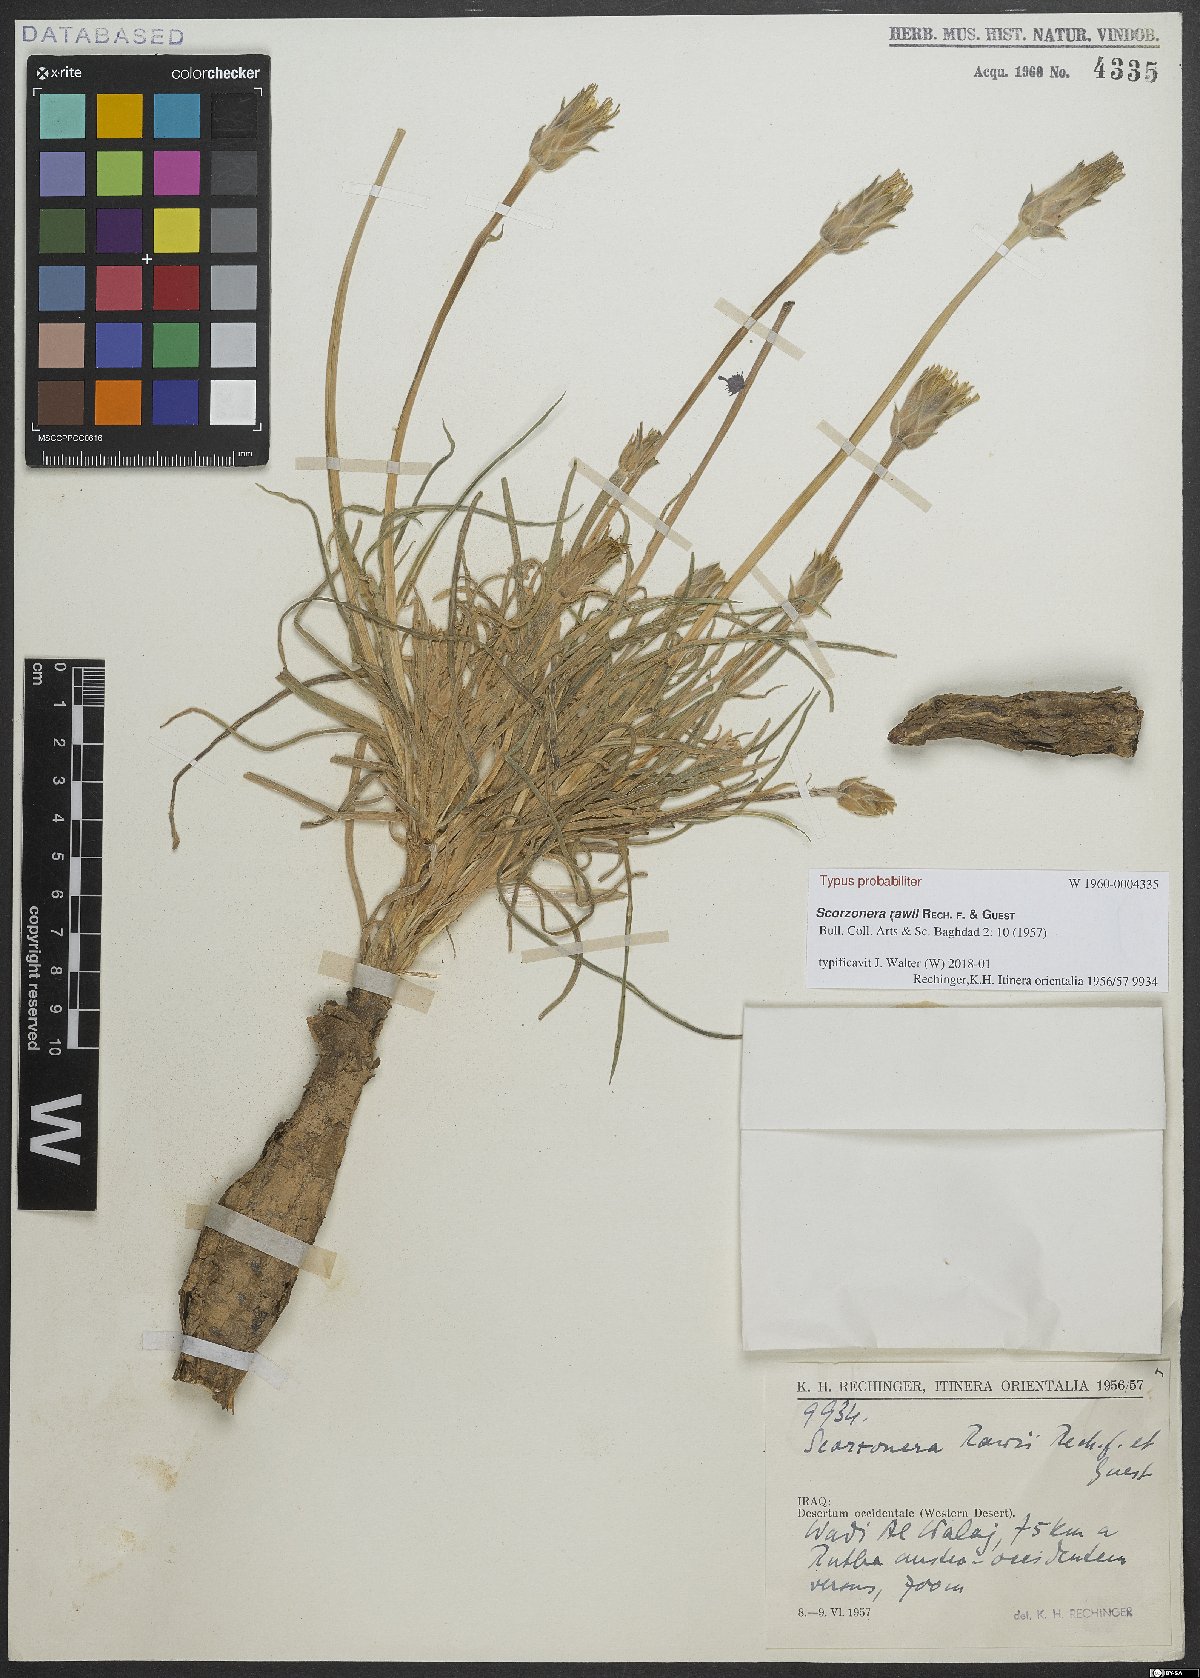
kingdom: Plantae
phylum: Tracheophyta
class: Magnoliopsida
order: Asterales
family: Asteraceae
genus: Scorzonera
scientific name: Scorzonera schweinfurthii
